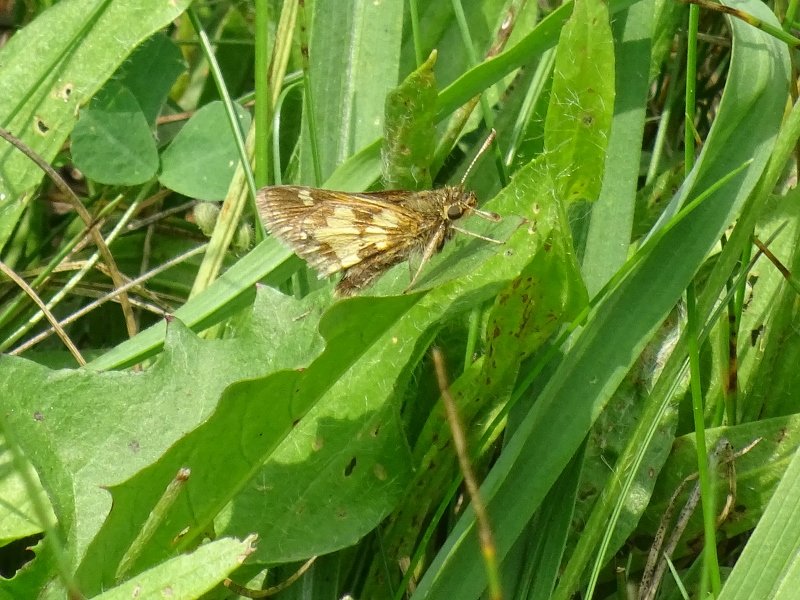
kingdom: Animalia
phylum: Arthropoda
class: Insecta
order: Lepidoptera
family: Hesperiidae
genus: Polites
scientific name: Polites coras
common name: Peck's Skipper
